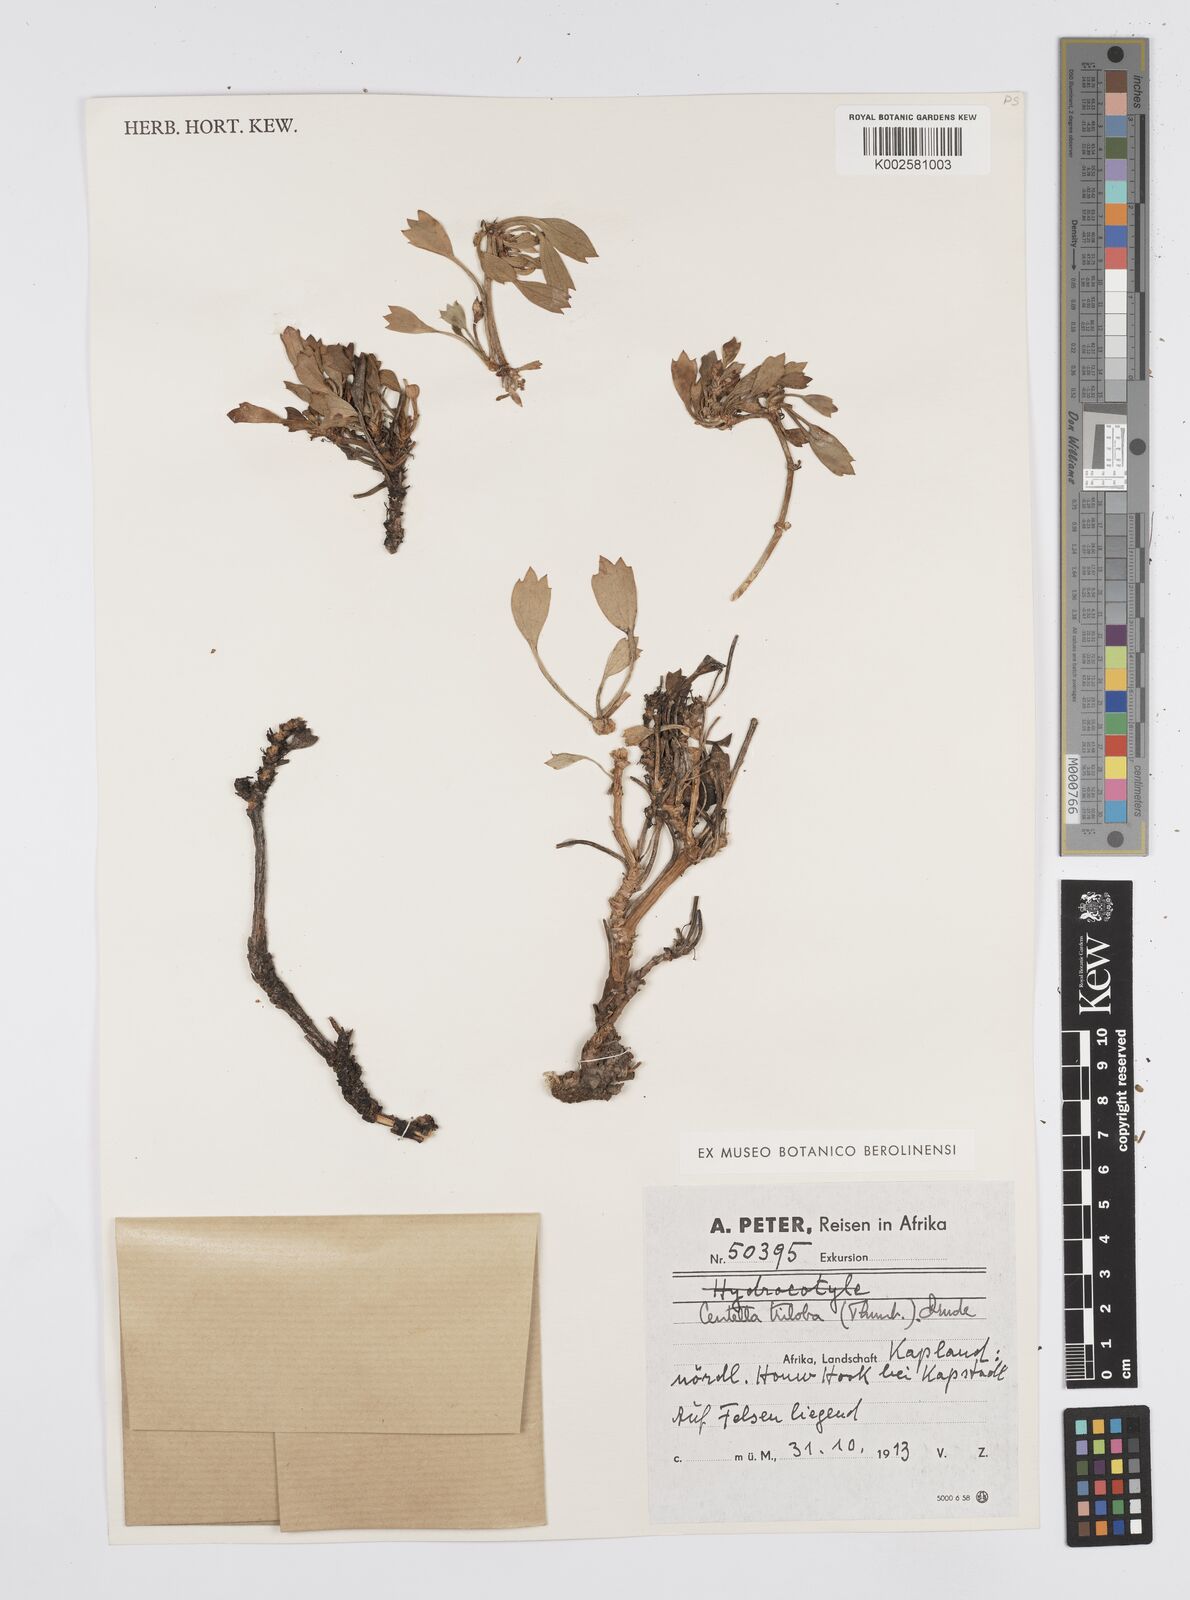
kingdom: Plantae
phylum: Tracheophyta
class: Magnoliopsida
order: Apiales
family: Apiaceae
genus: Centella
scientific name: Centella triloba
